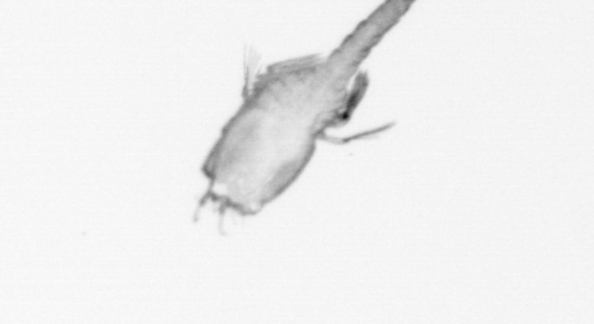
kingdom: Animalia
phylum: Annelida
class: Polychaeta
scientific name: Polychaeta
